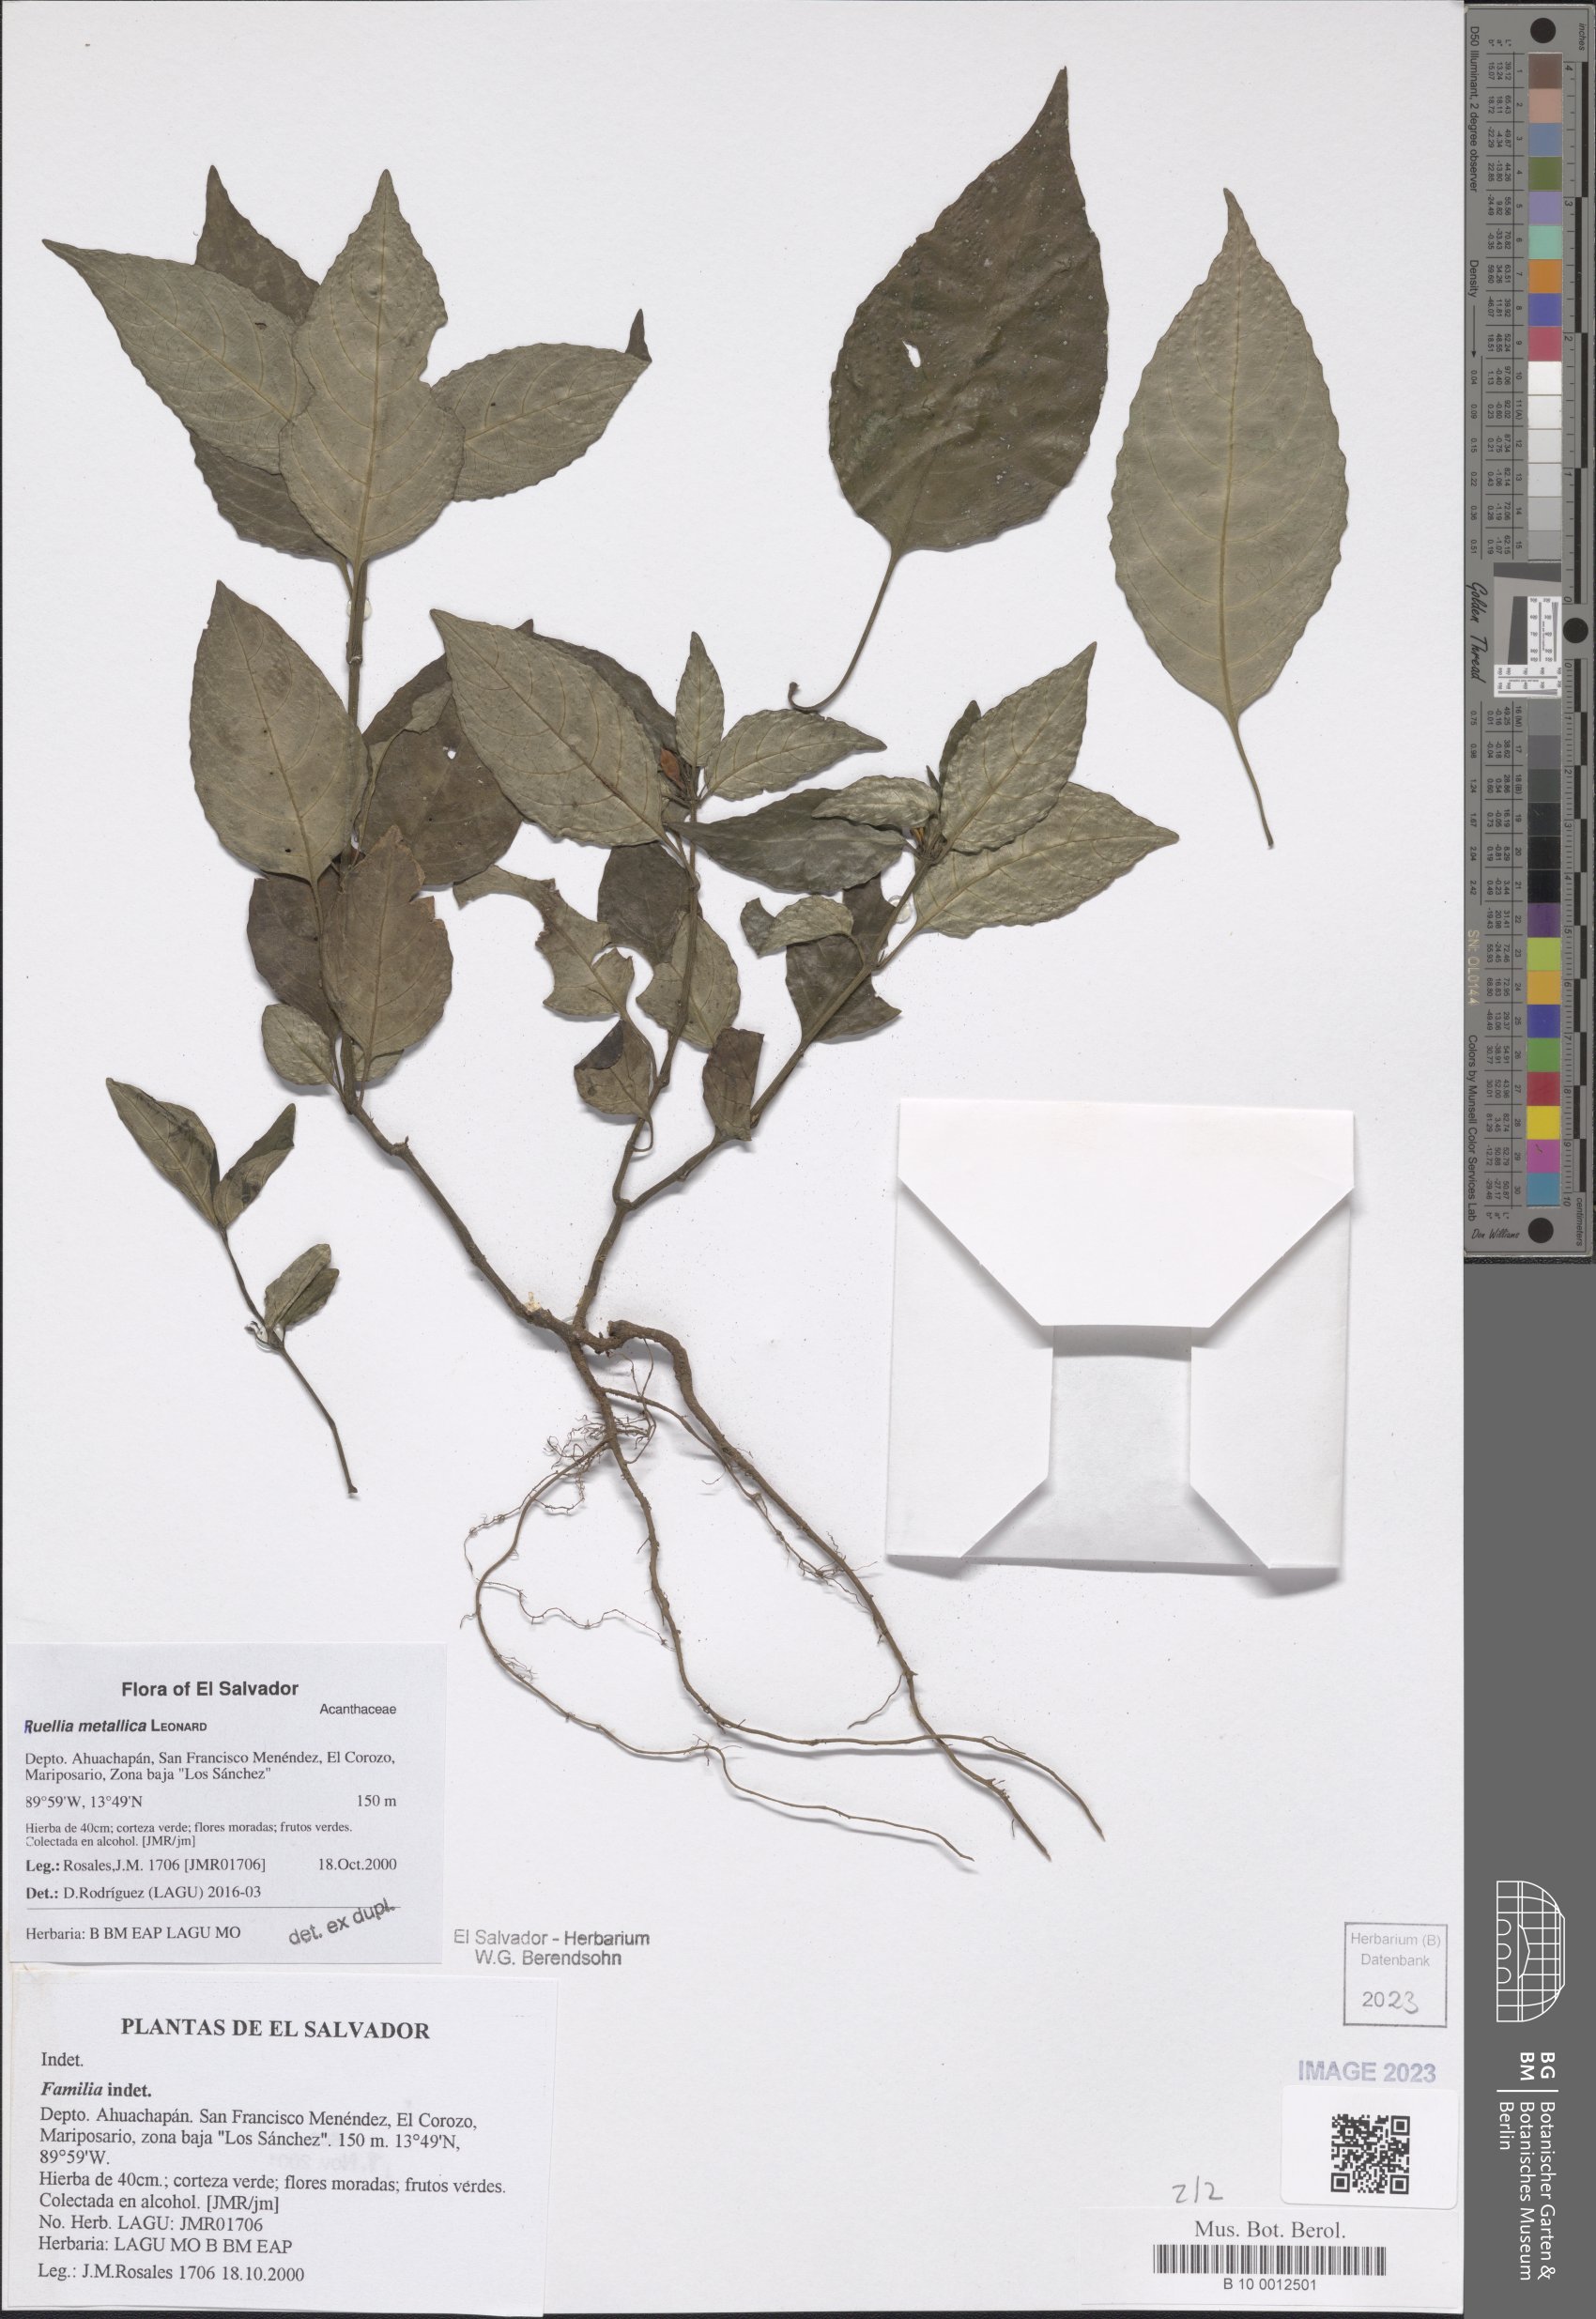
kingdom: Plantae
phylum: Tracheophyta
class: Magnoliopsida
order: Lamiales
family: Acanthaceae
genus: Ruellia
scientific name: Ruellia metallica
